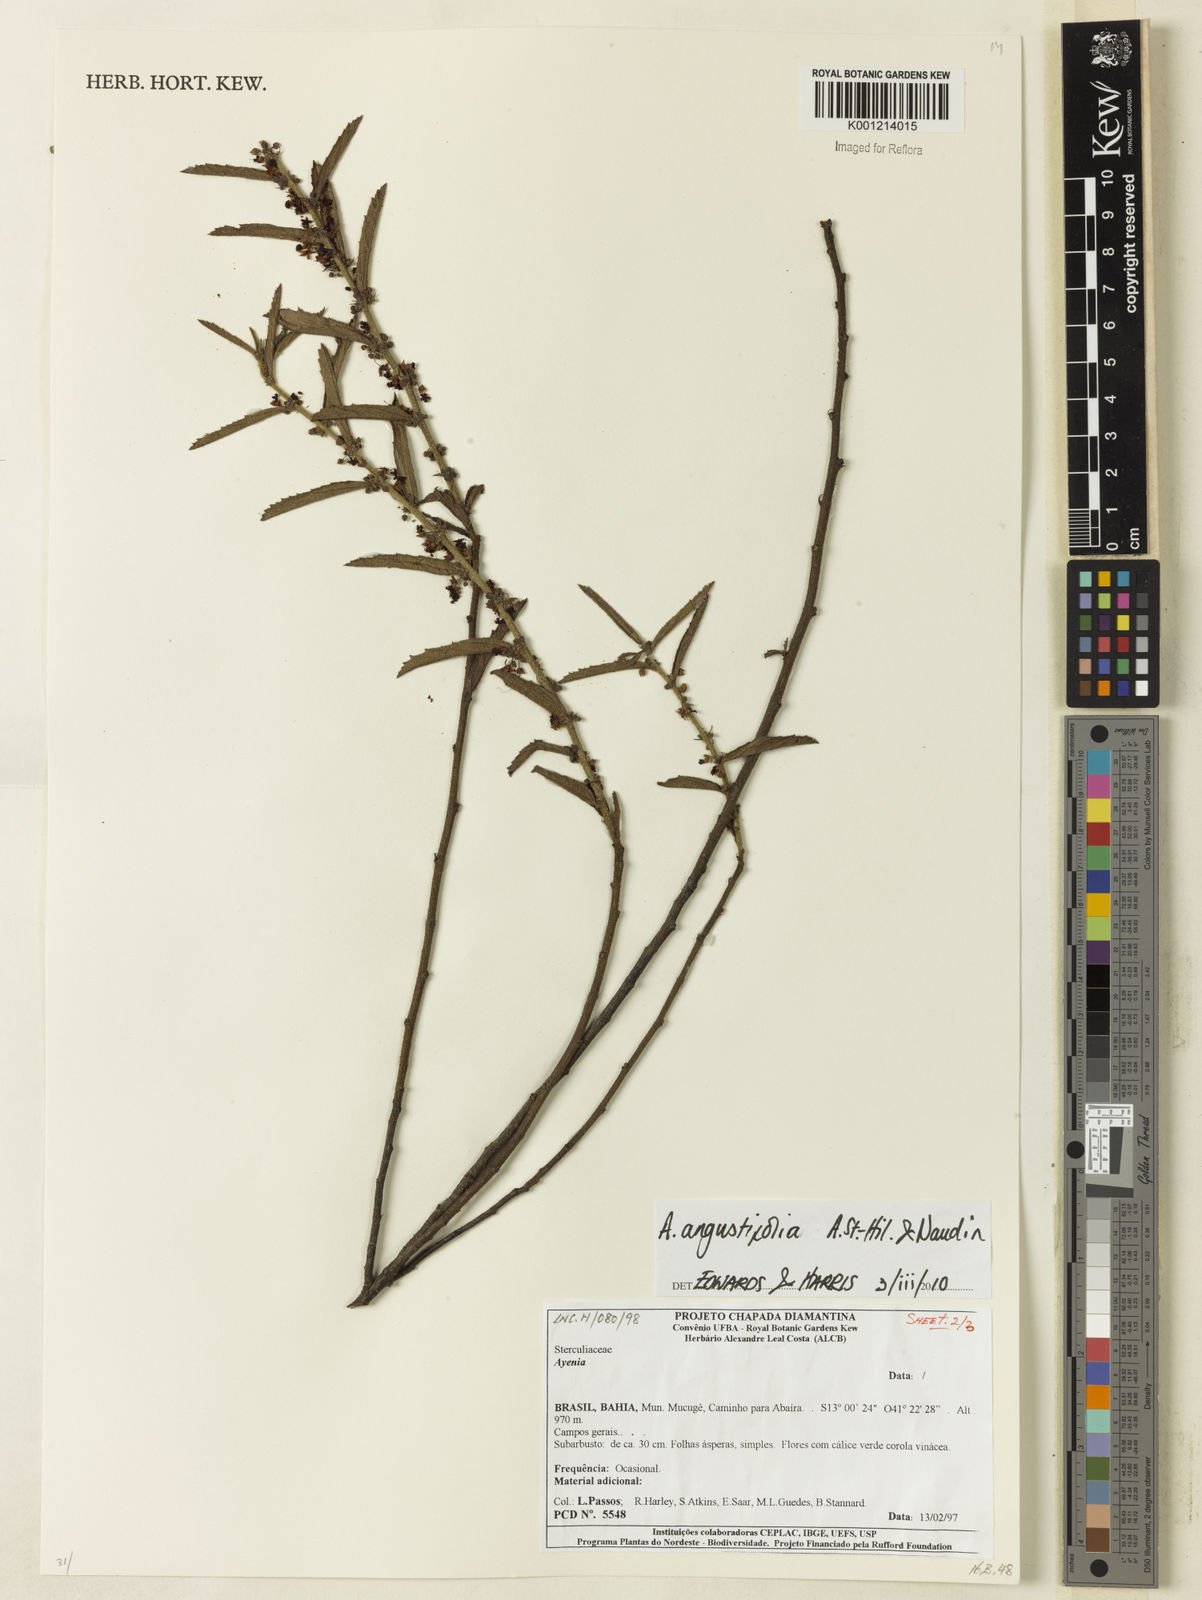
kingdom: Plantae
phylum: Tracheophyta
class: Magnoliopsida
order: Malvales
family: Malvaceae
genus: Ayenia
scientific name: Ayenia angustifolia
